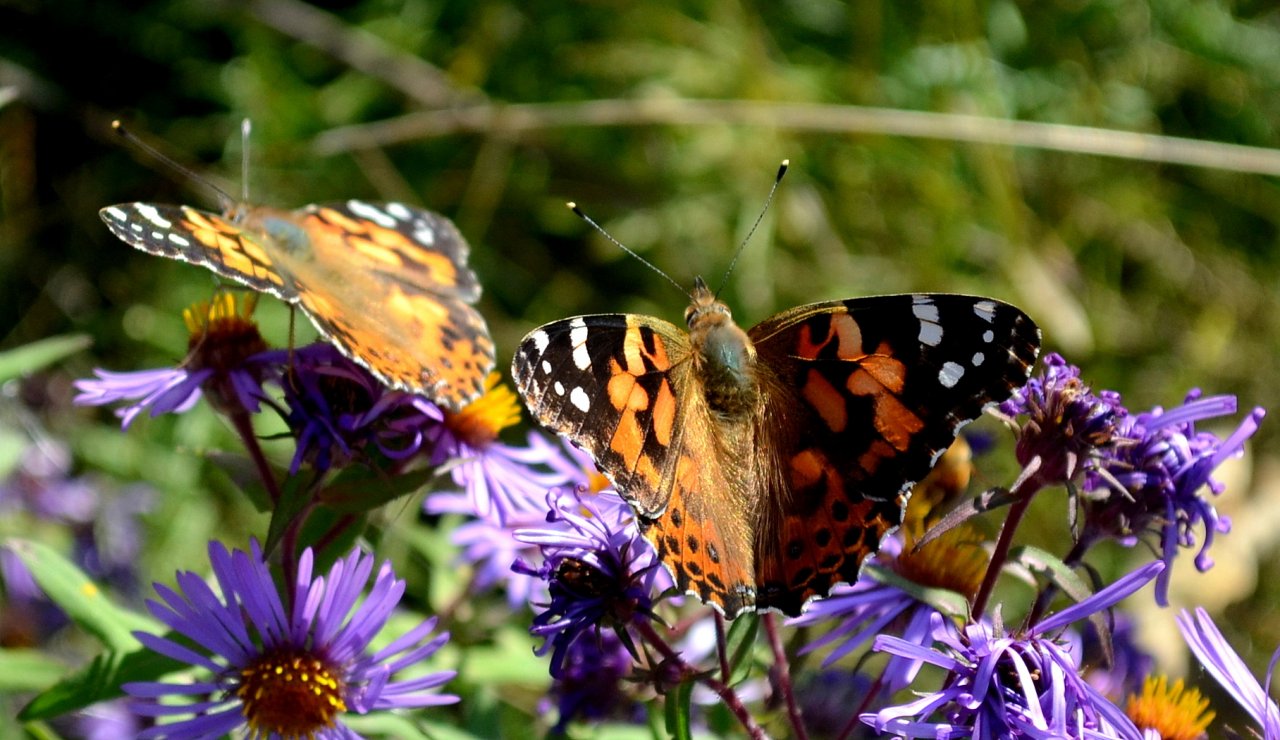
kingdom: Animalia
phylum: Arthropoda
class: Insecta
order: Lepidoptera
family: Nymphalidae
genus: Vanessa
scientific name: Vanessa cardui
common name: Painted Lady
